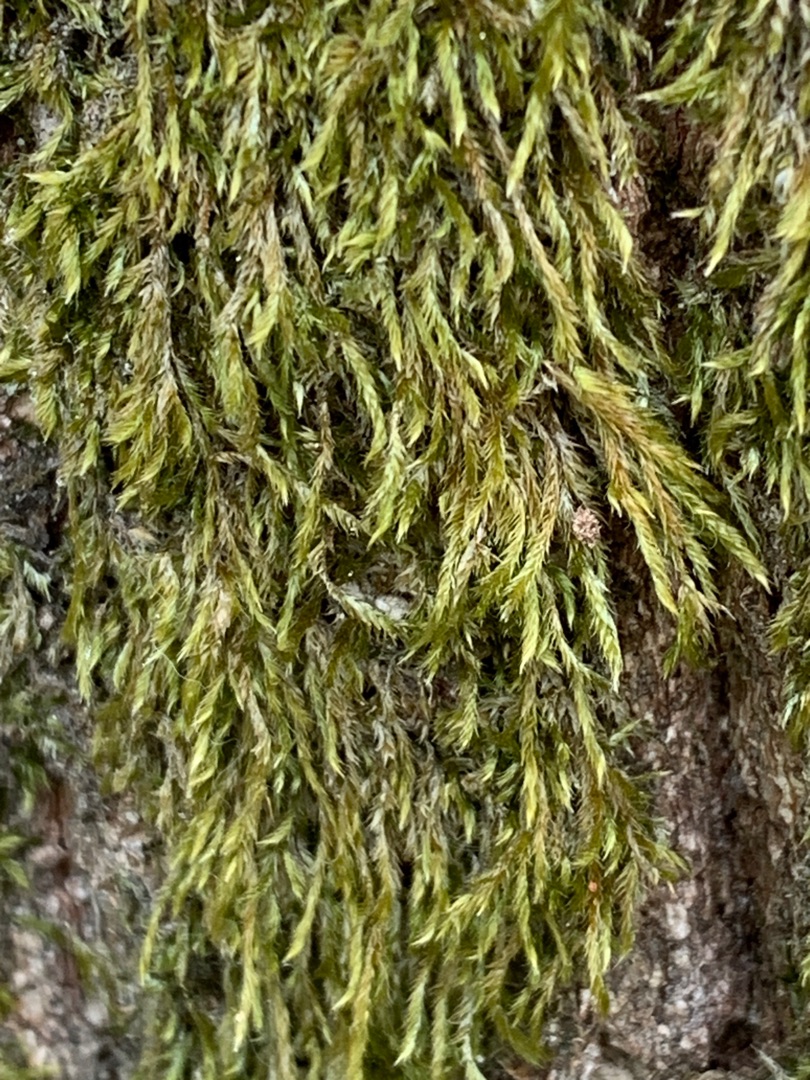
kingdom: Plantae
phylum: Bryophyta
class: Bryopsida
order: Hypnales
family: Hypnaceae
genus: Hypnum
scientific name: Hypnum
